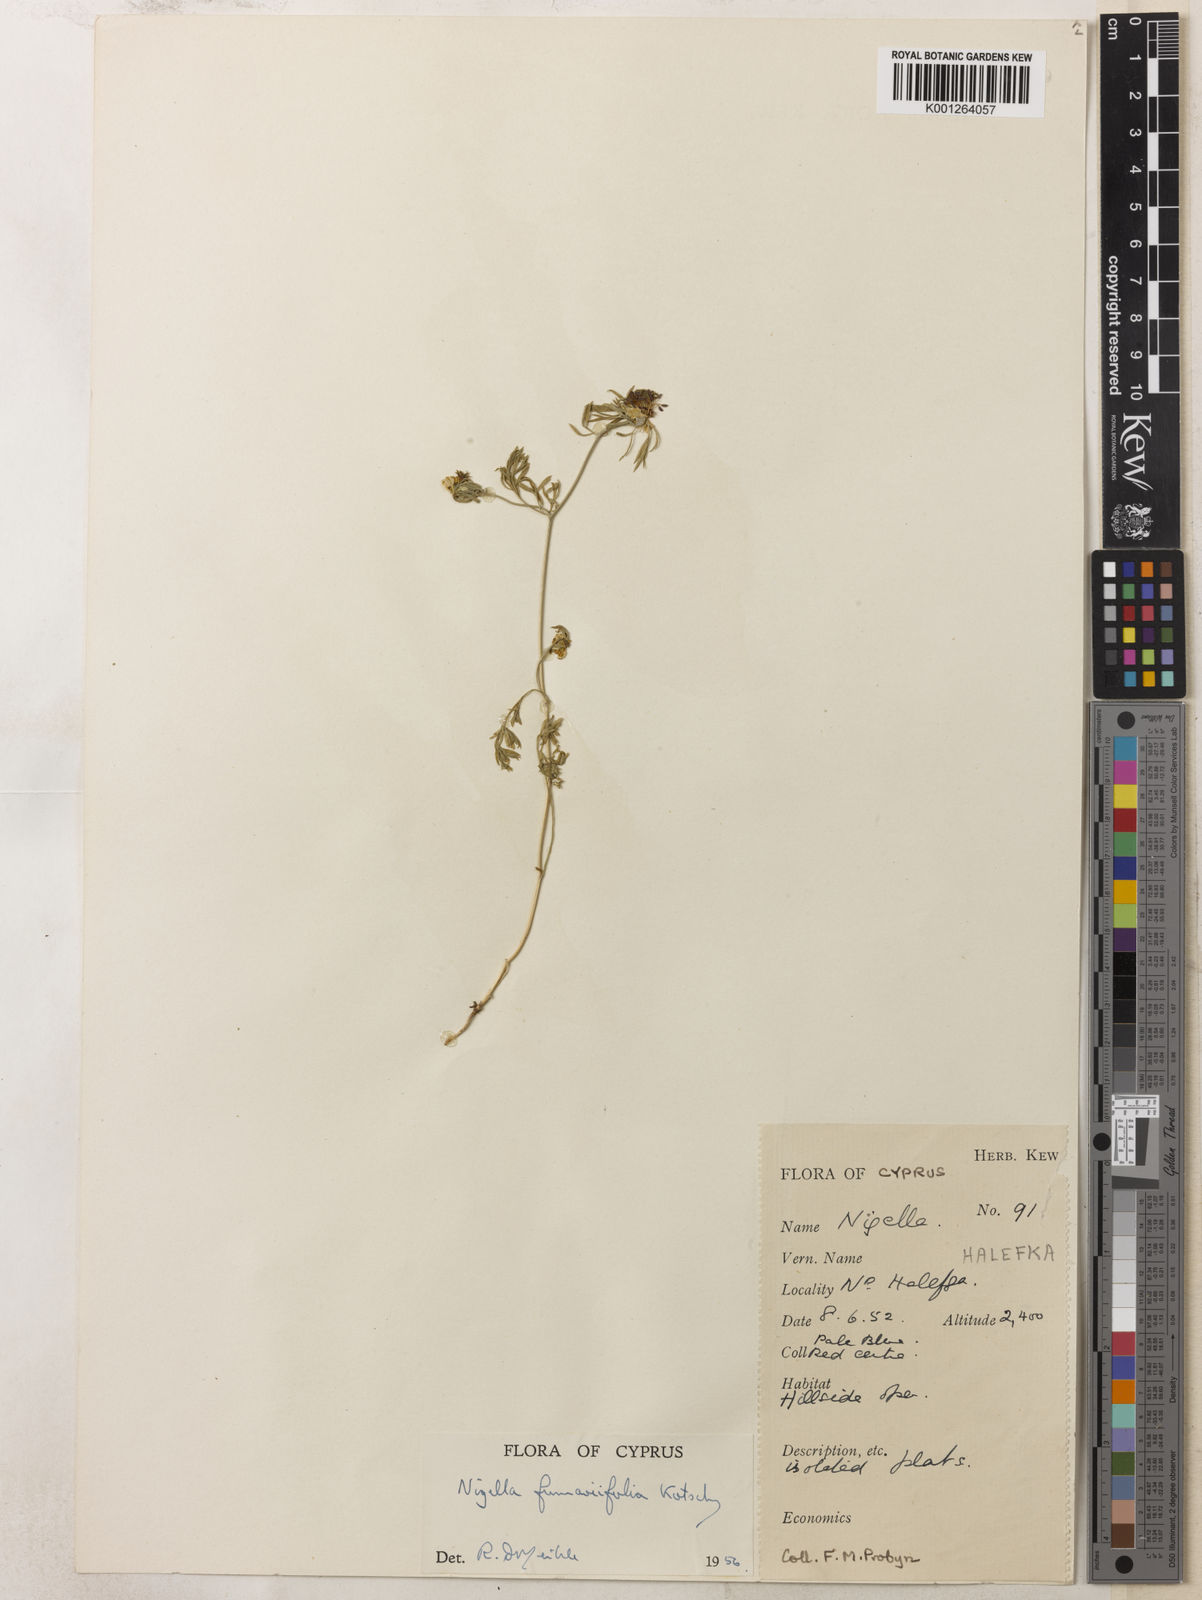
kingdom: Plantae
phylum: Tracheophyta
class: Magnoliopsida
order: Ranunculales
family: Ranunculaceae
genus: Nigella
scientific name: Nigella
